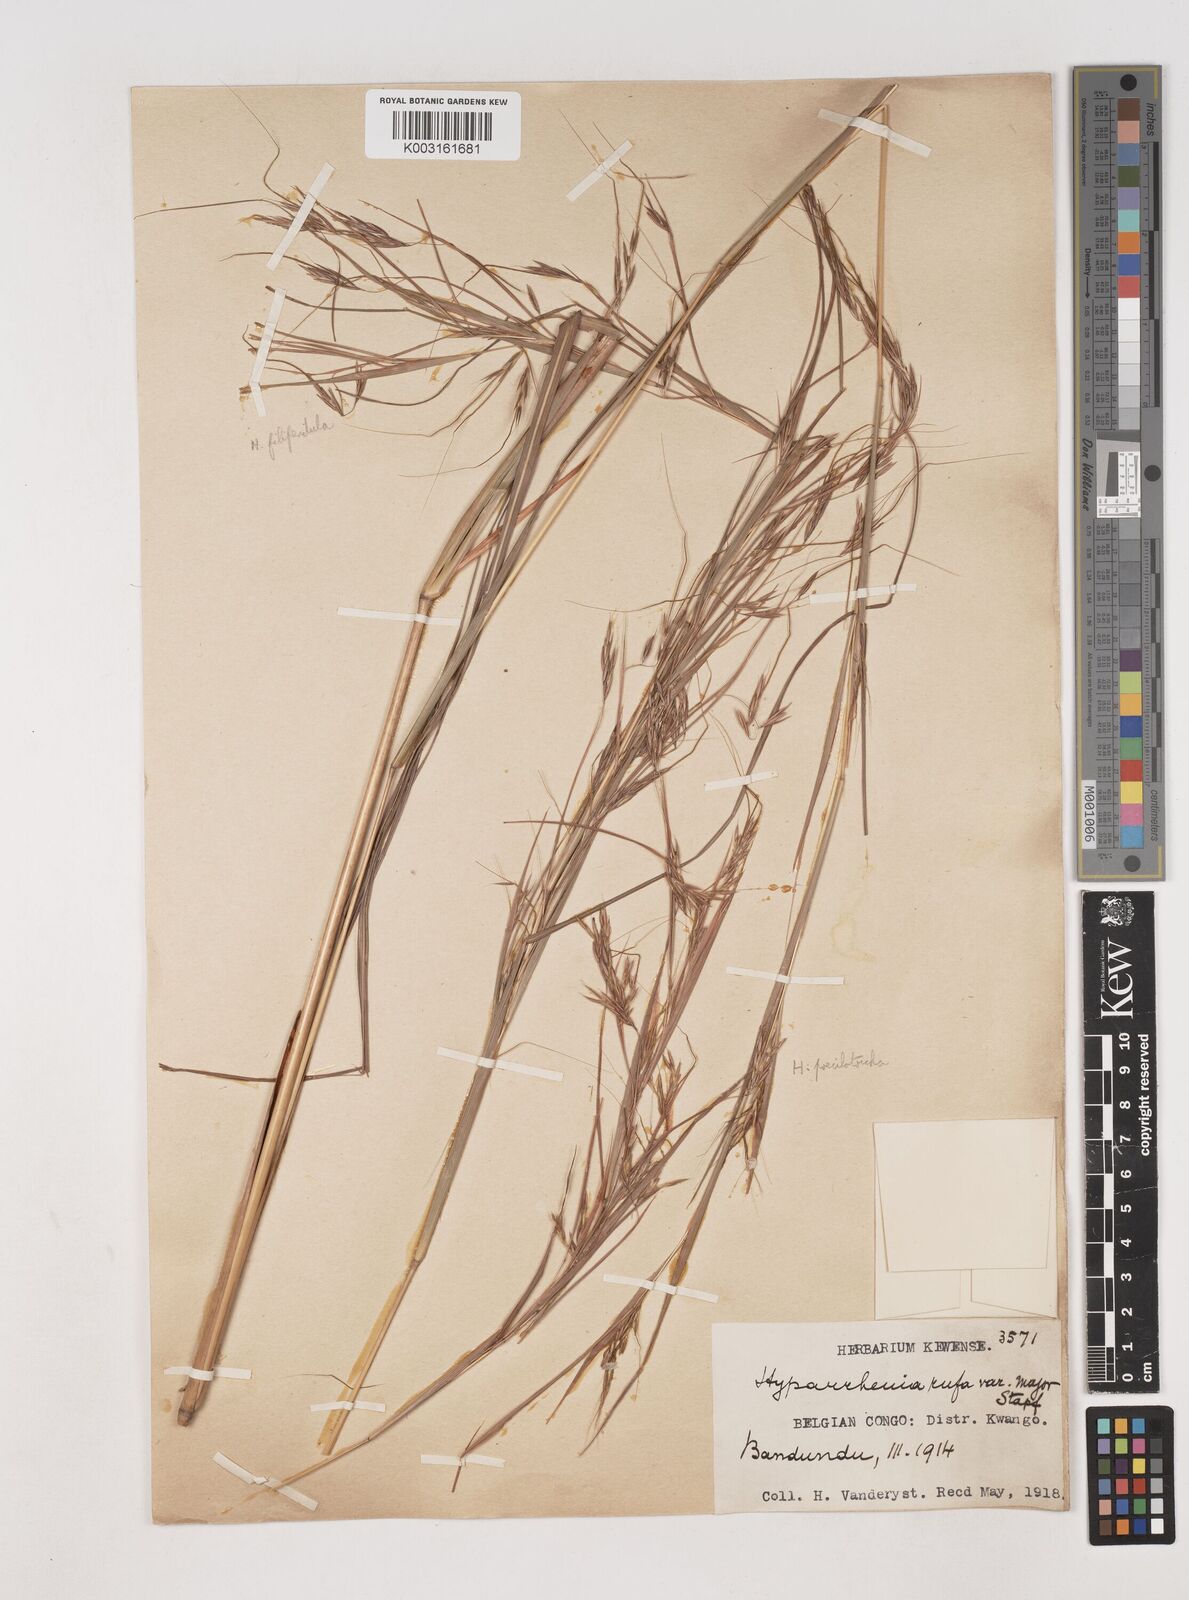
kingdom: Plantae
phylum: Tracheophyta
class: Liliopsida
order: Poales
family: Poaceae
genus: Hyparrhenia
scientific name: Hyparrhenia poecilotricha
